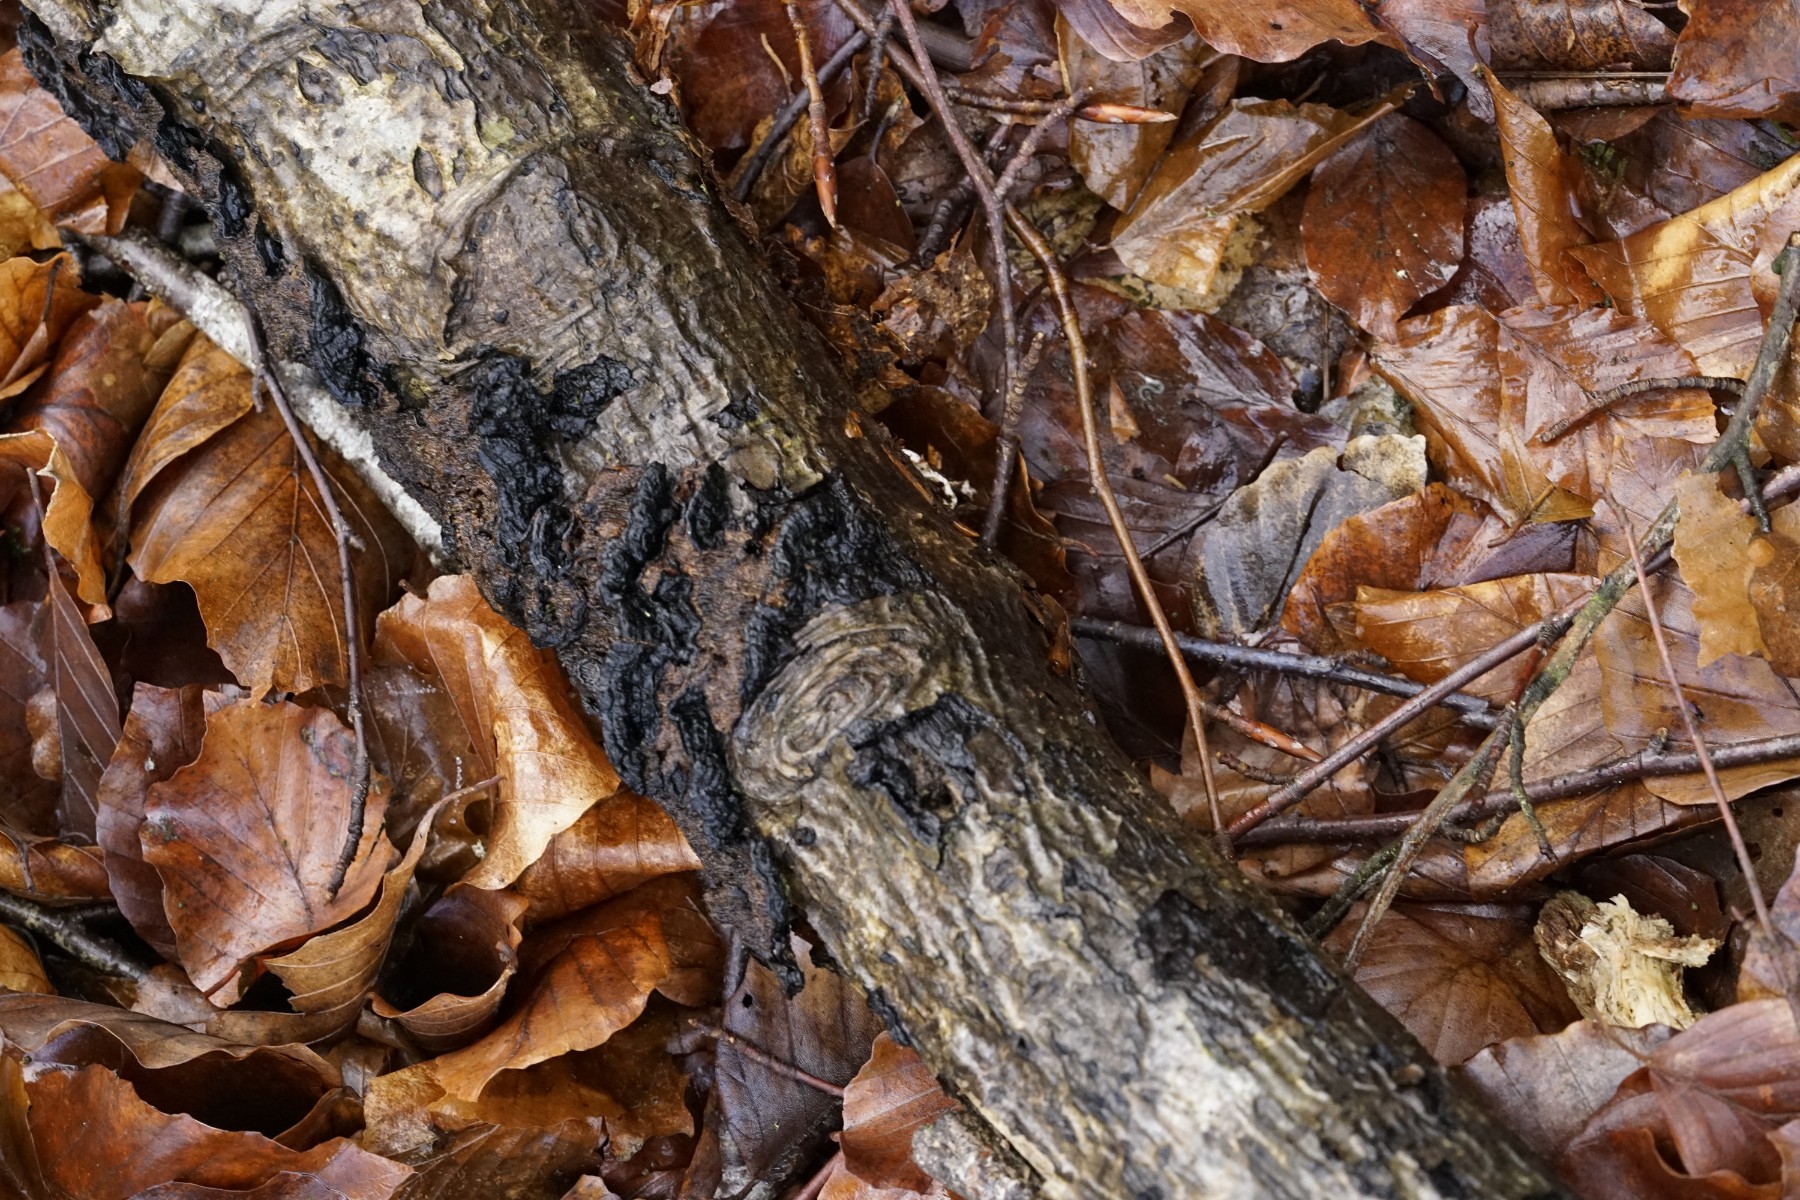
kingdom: Fungi
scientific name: Fungi
